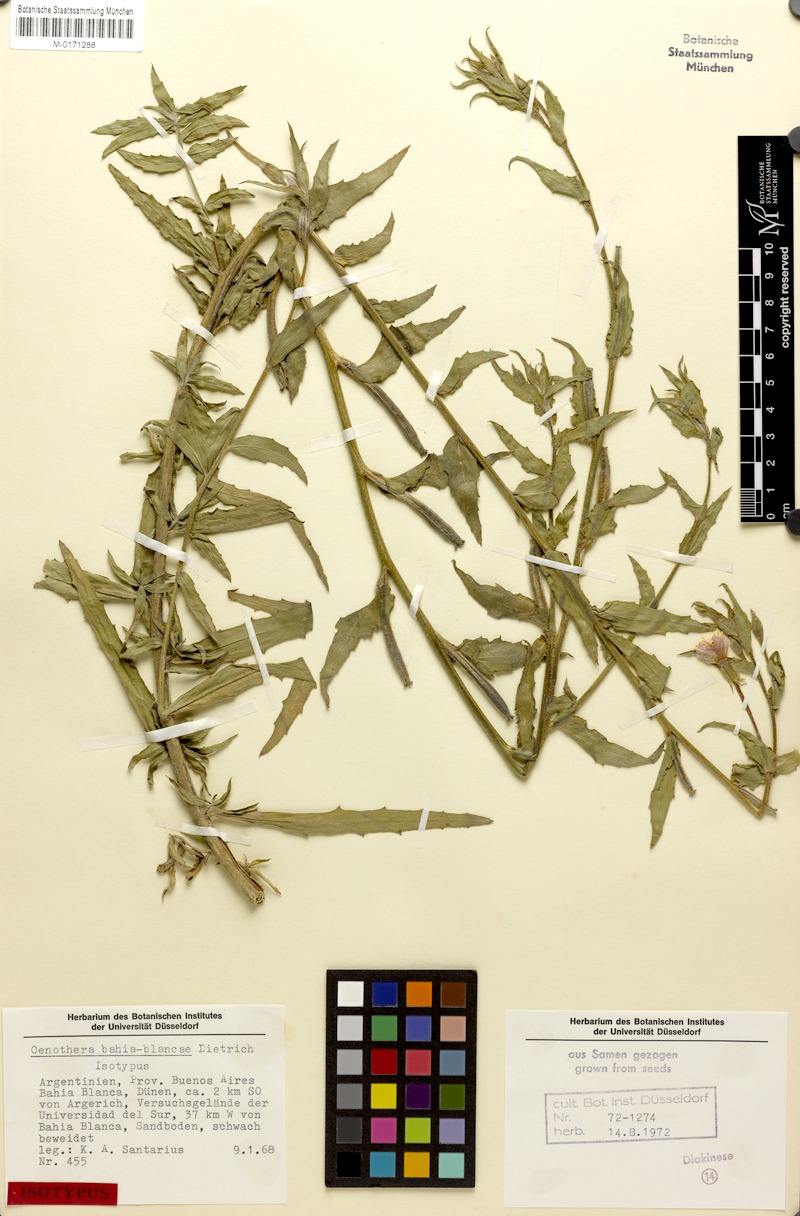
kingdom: Plantae
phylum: Tracheophyta
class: Magnoliopsida
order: Myrtales
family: Onagraceae
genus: Oenothera
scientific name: Oenothera bahia-blancae
